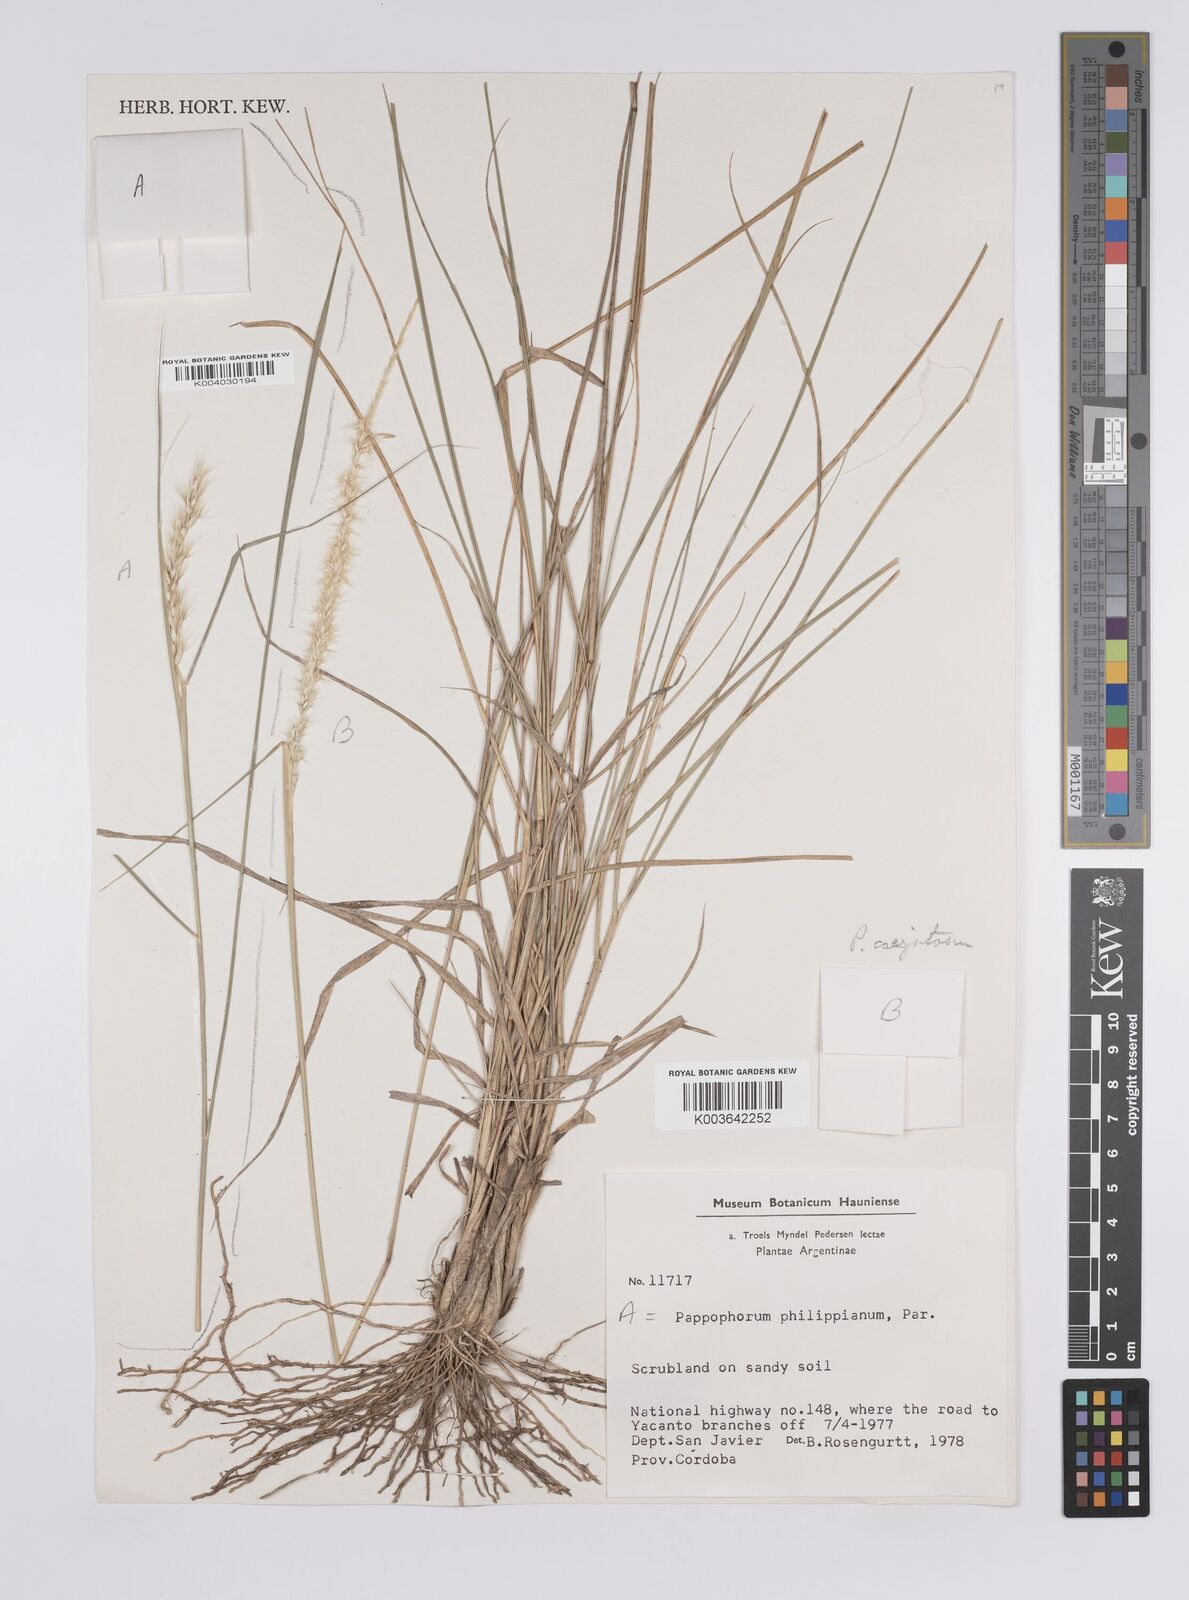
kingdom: Plantae
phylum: Tracheophyta
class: Liliopsida
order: Poales
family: Poaceae
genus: Pappophorum
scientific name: Pappophorum caespitosum
